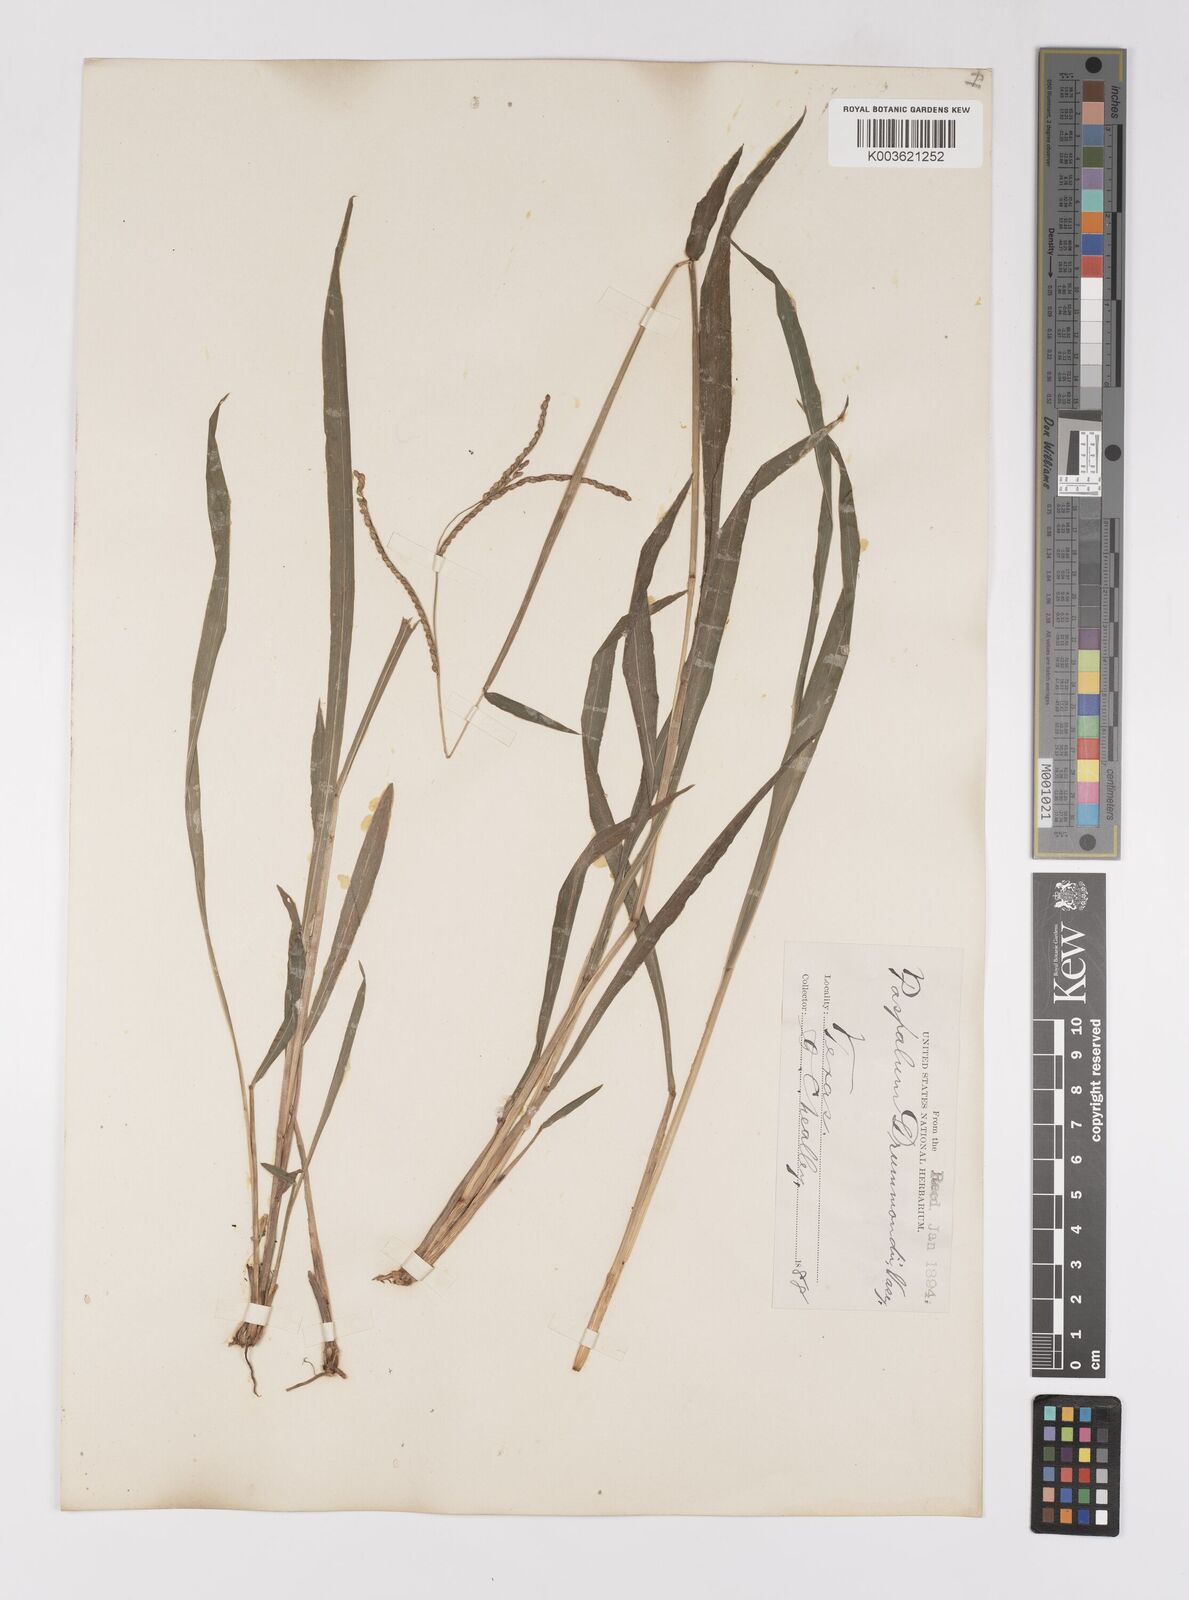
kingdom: Plantae
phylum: Tracheophyta
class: Liliopsida
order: Poales
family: Poaceae
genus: Paspalum
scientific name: Paspalum langei
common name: Rusty-seed paspalum
